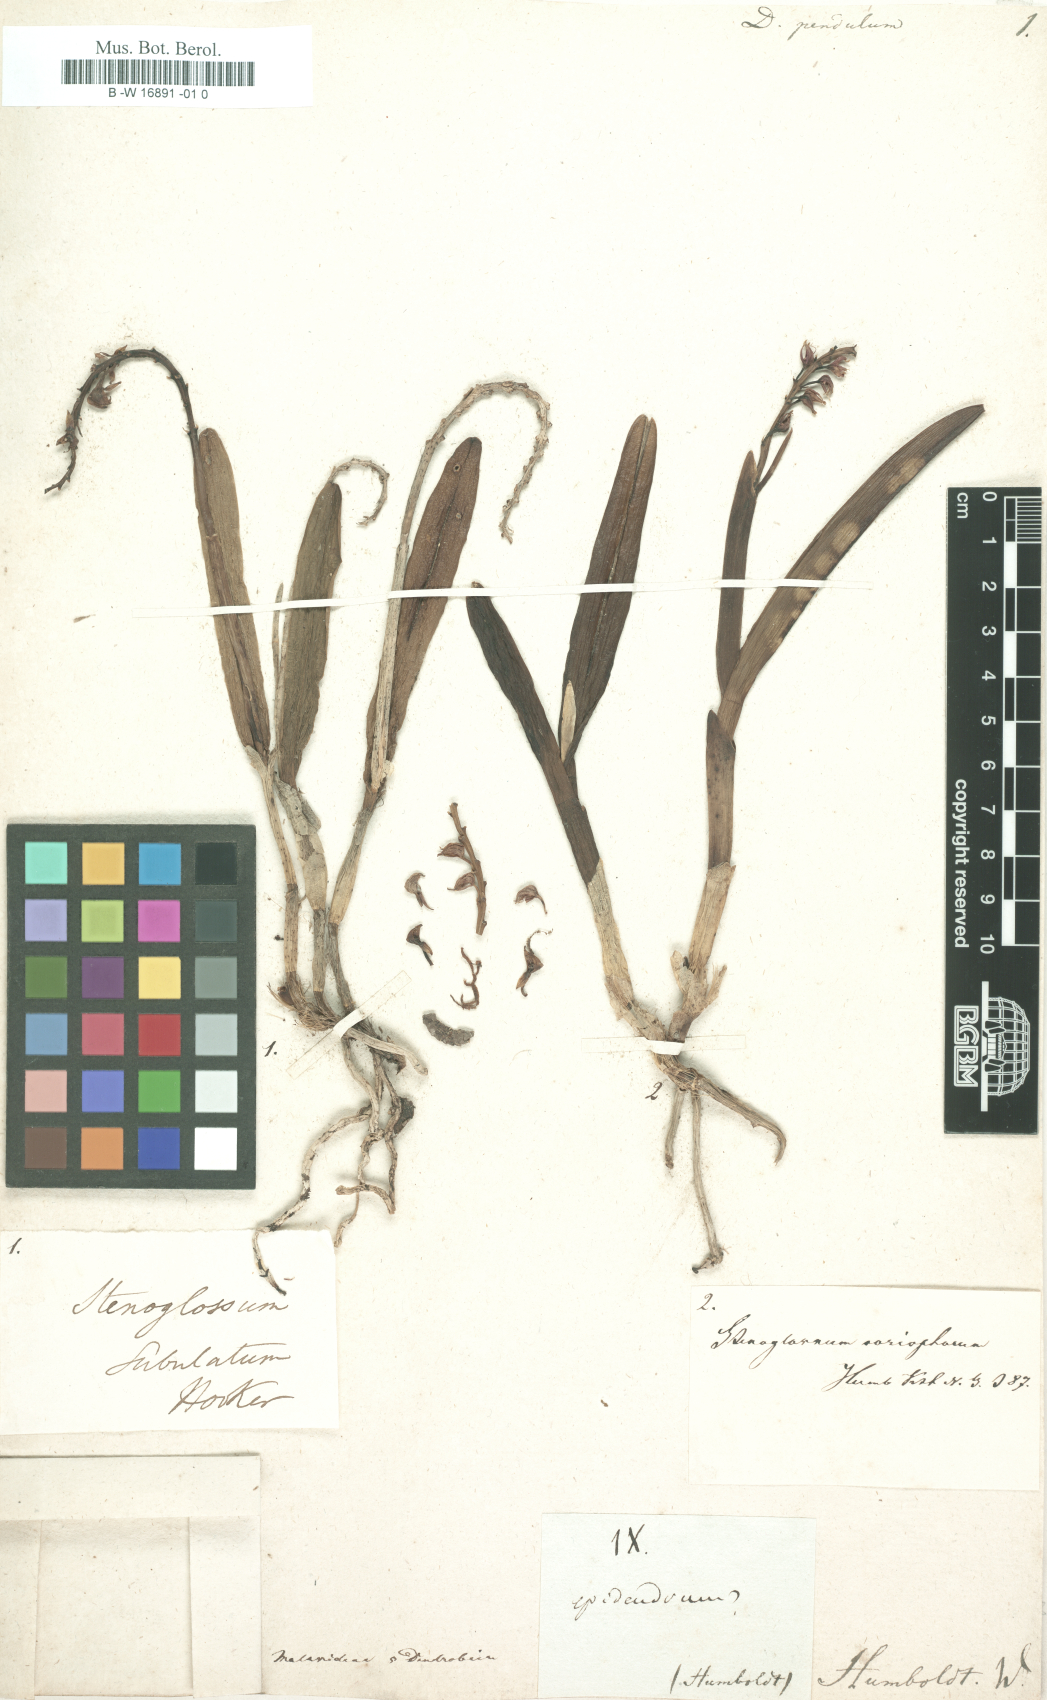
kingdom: Plantae
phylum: Tracheophyta
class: Liliopsida
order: Asparagales
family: Orchidaceae
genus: Dendrobium
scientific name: Dendrobium pendulum
